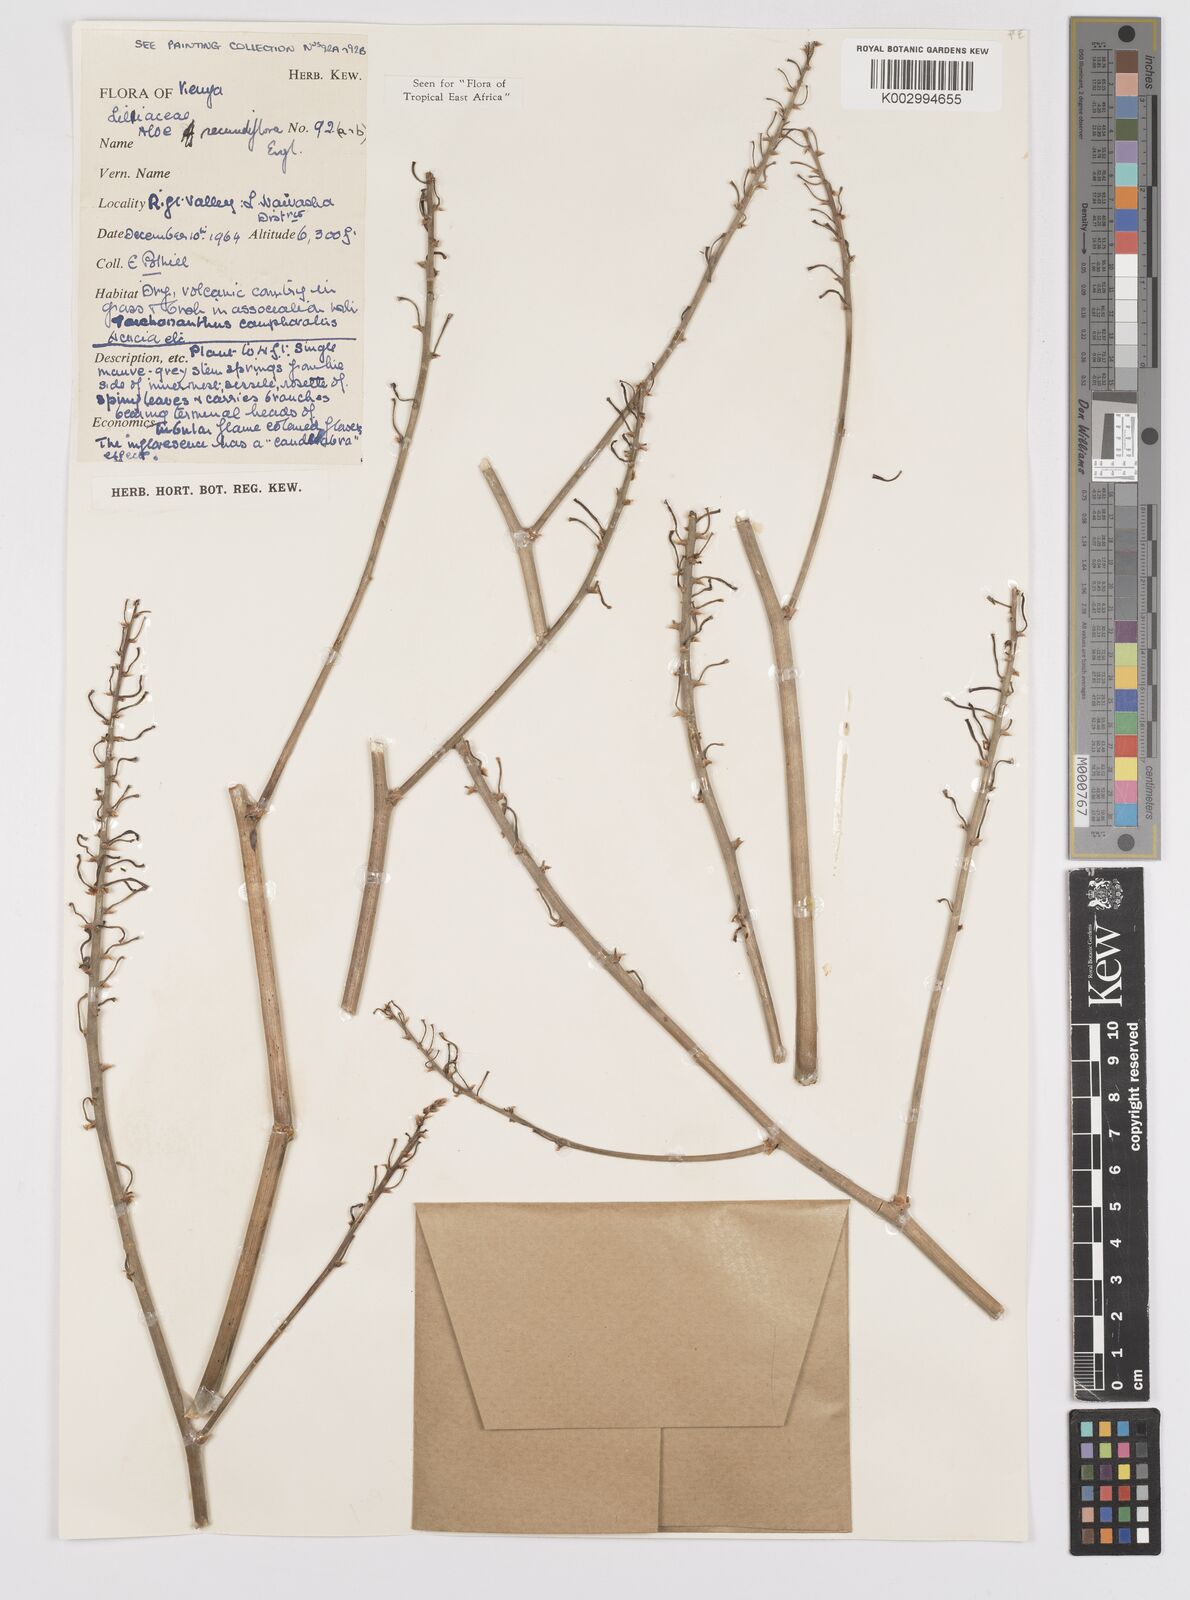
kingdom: Plantae
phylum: Tracheophyta
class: Liliopsida
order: Asparagales
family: Asphodelaceae
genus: Aloe
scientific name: Aloe secundiflora
